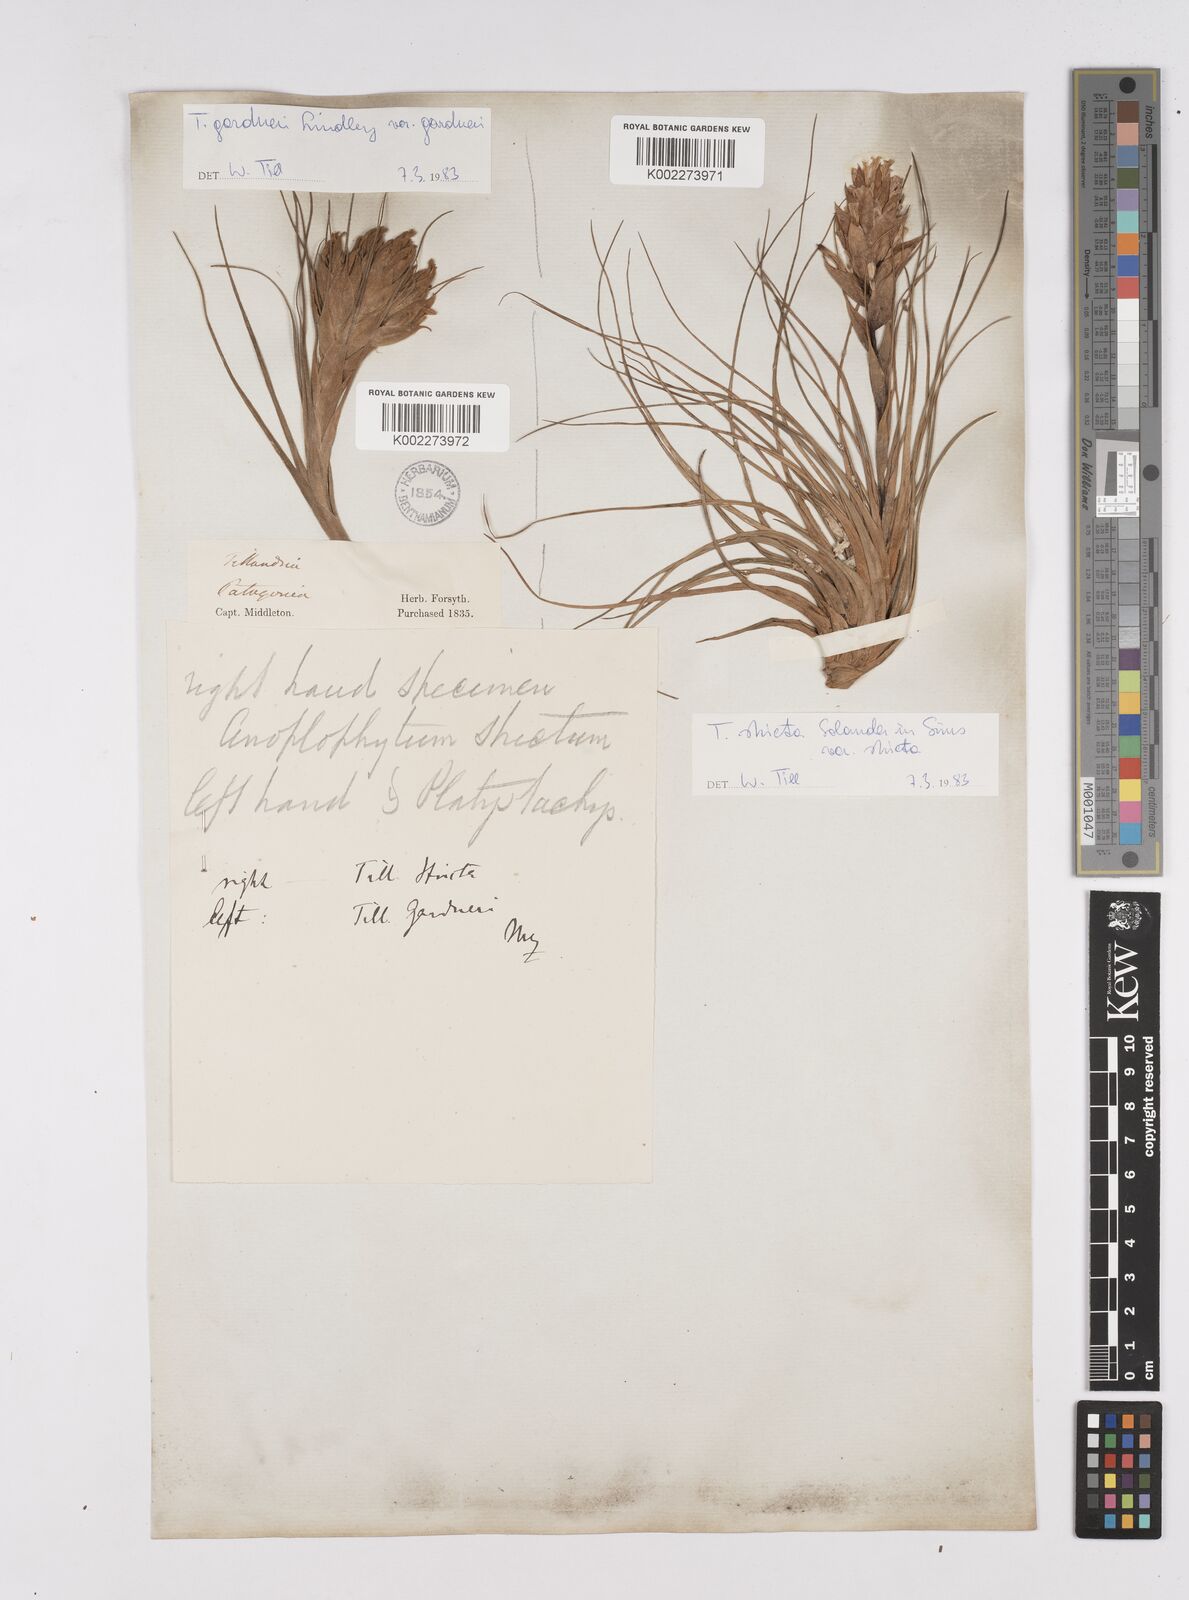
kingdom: Plantae
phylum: Tracheophyta
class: Liliopsida
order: Poales
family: Bromeliaceae
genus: Tillandsia
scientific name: Tillandsia
